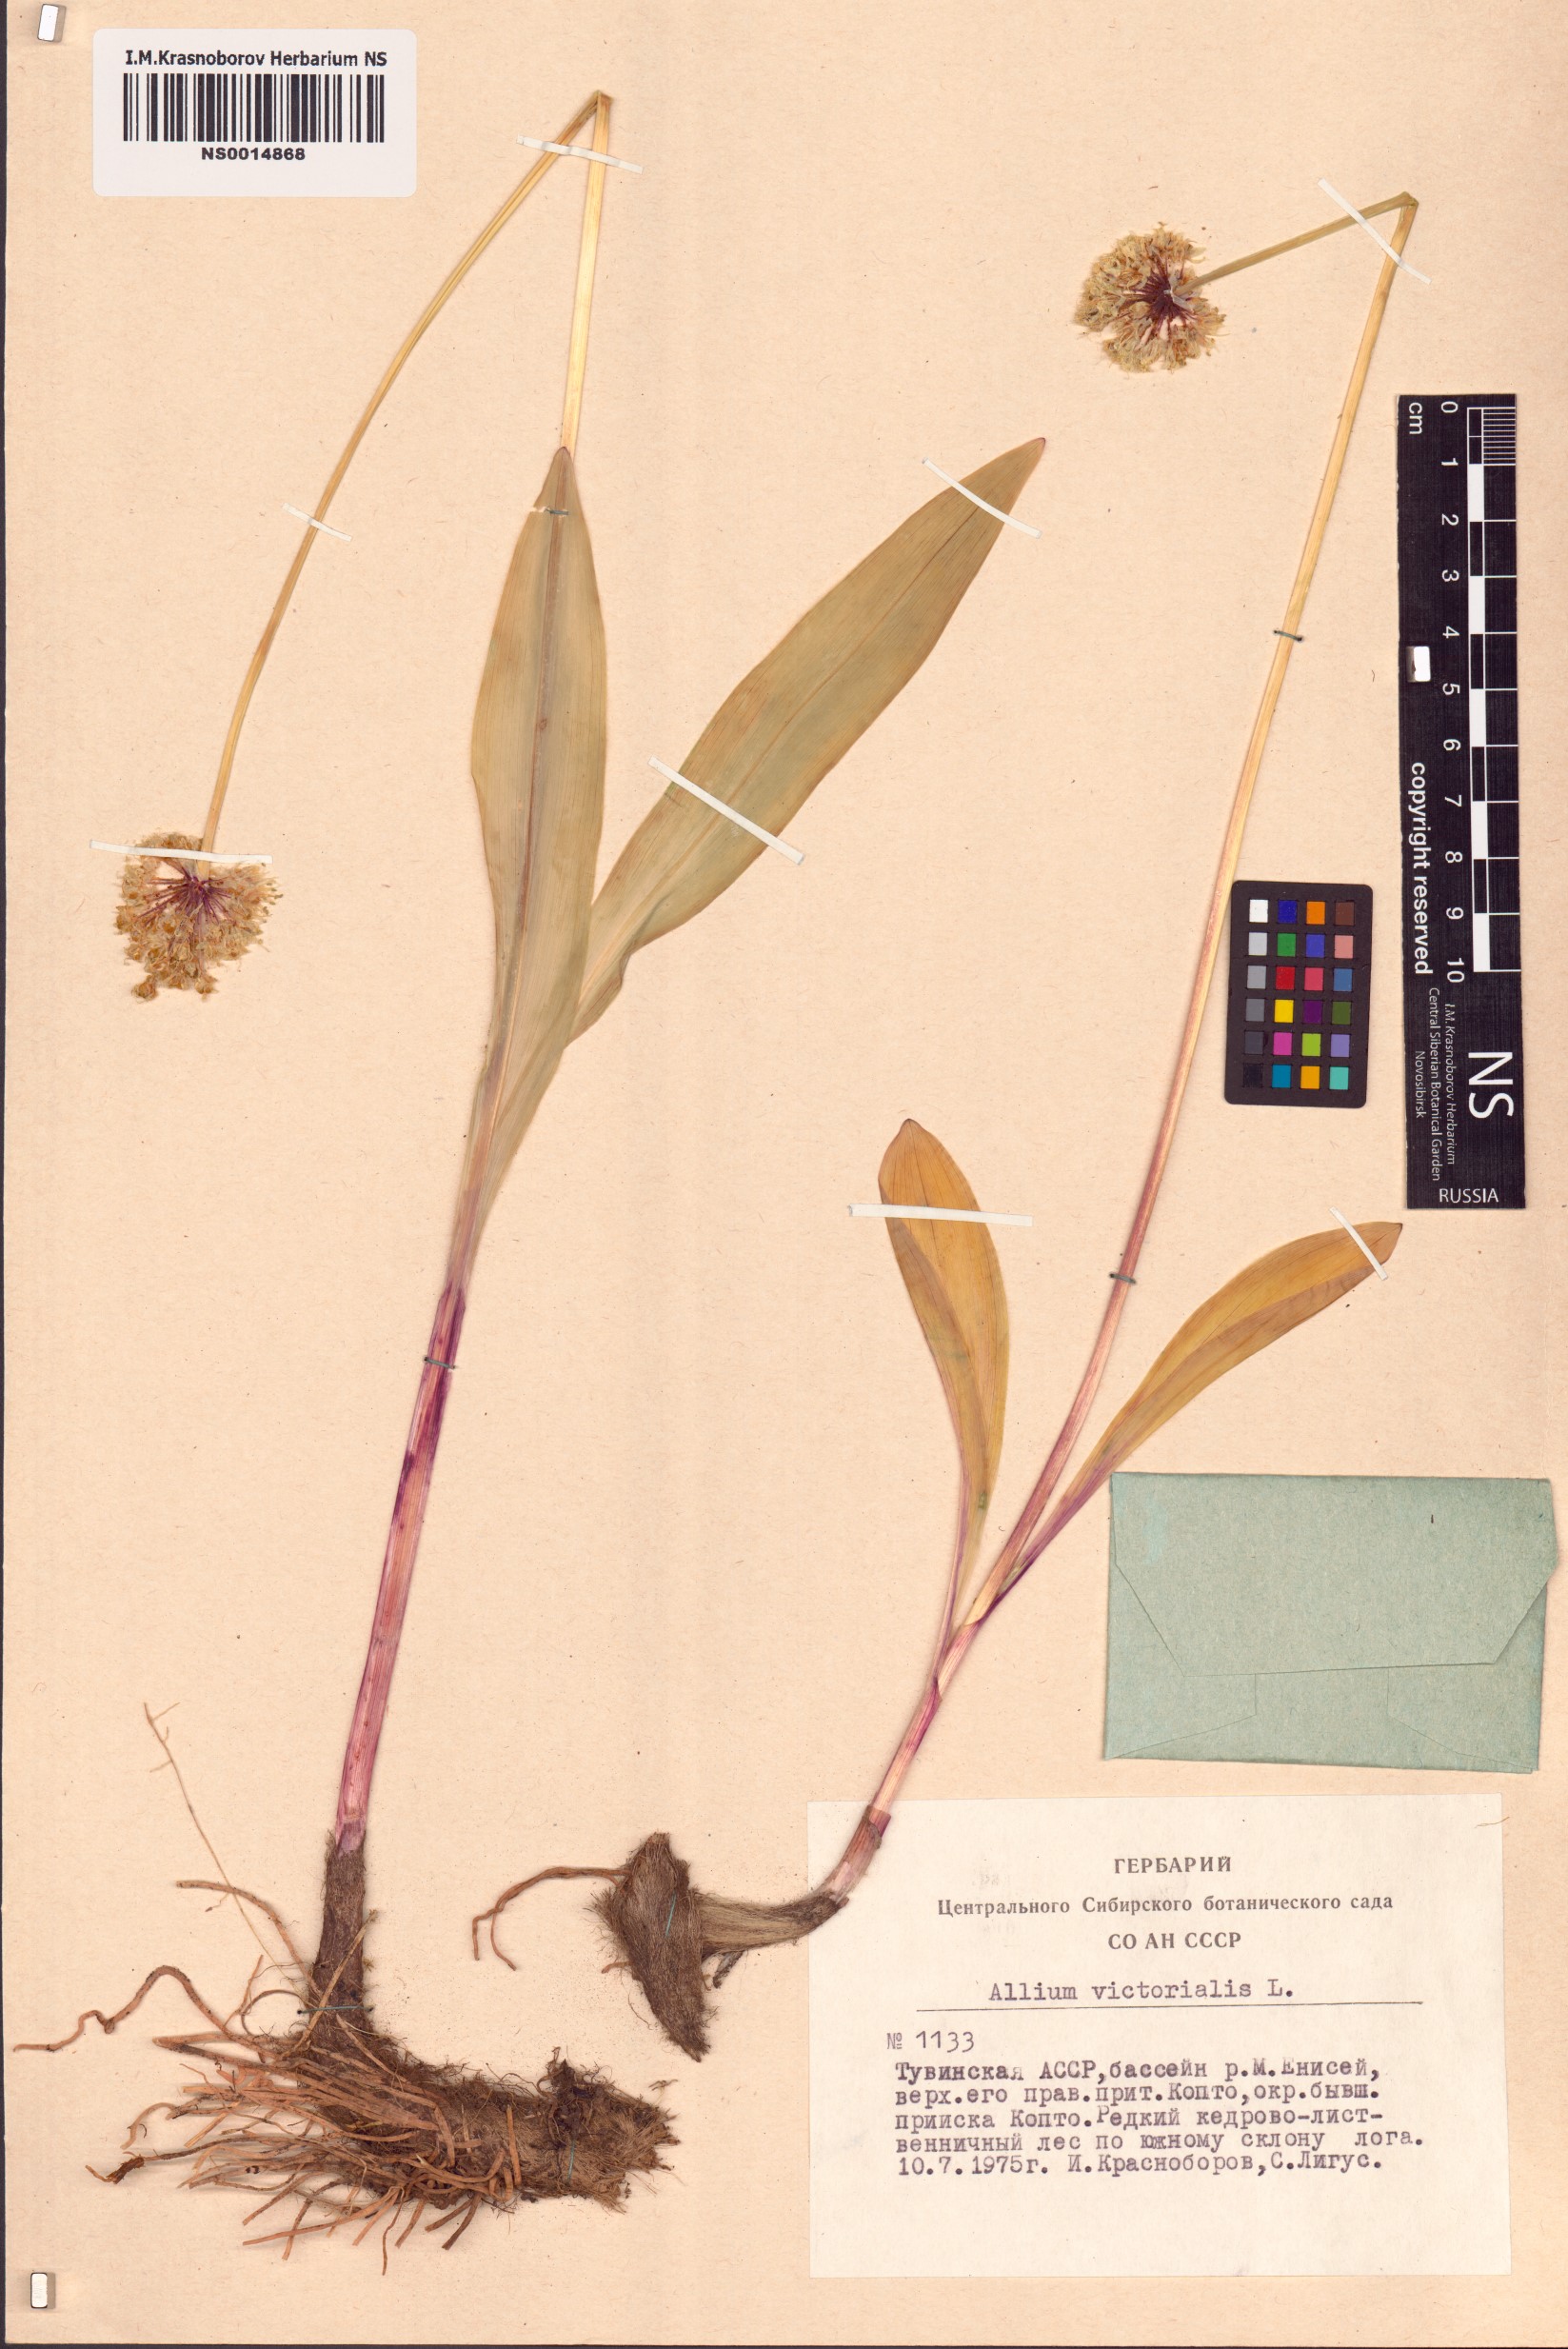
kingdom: Plantae
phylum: Tracheophyta
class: Liliopsida
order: Asparagales
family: Amaryllidaceae
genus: Allium
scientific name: Allium victorialis
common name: Alpine leek
